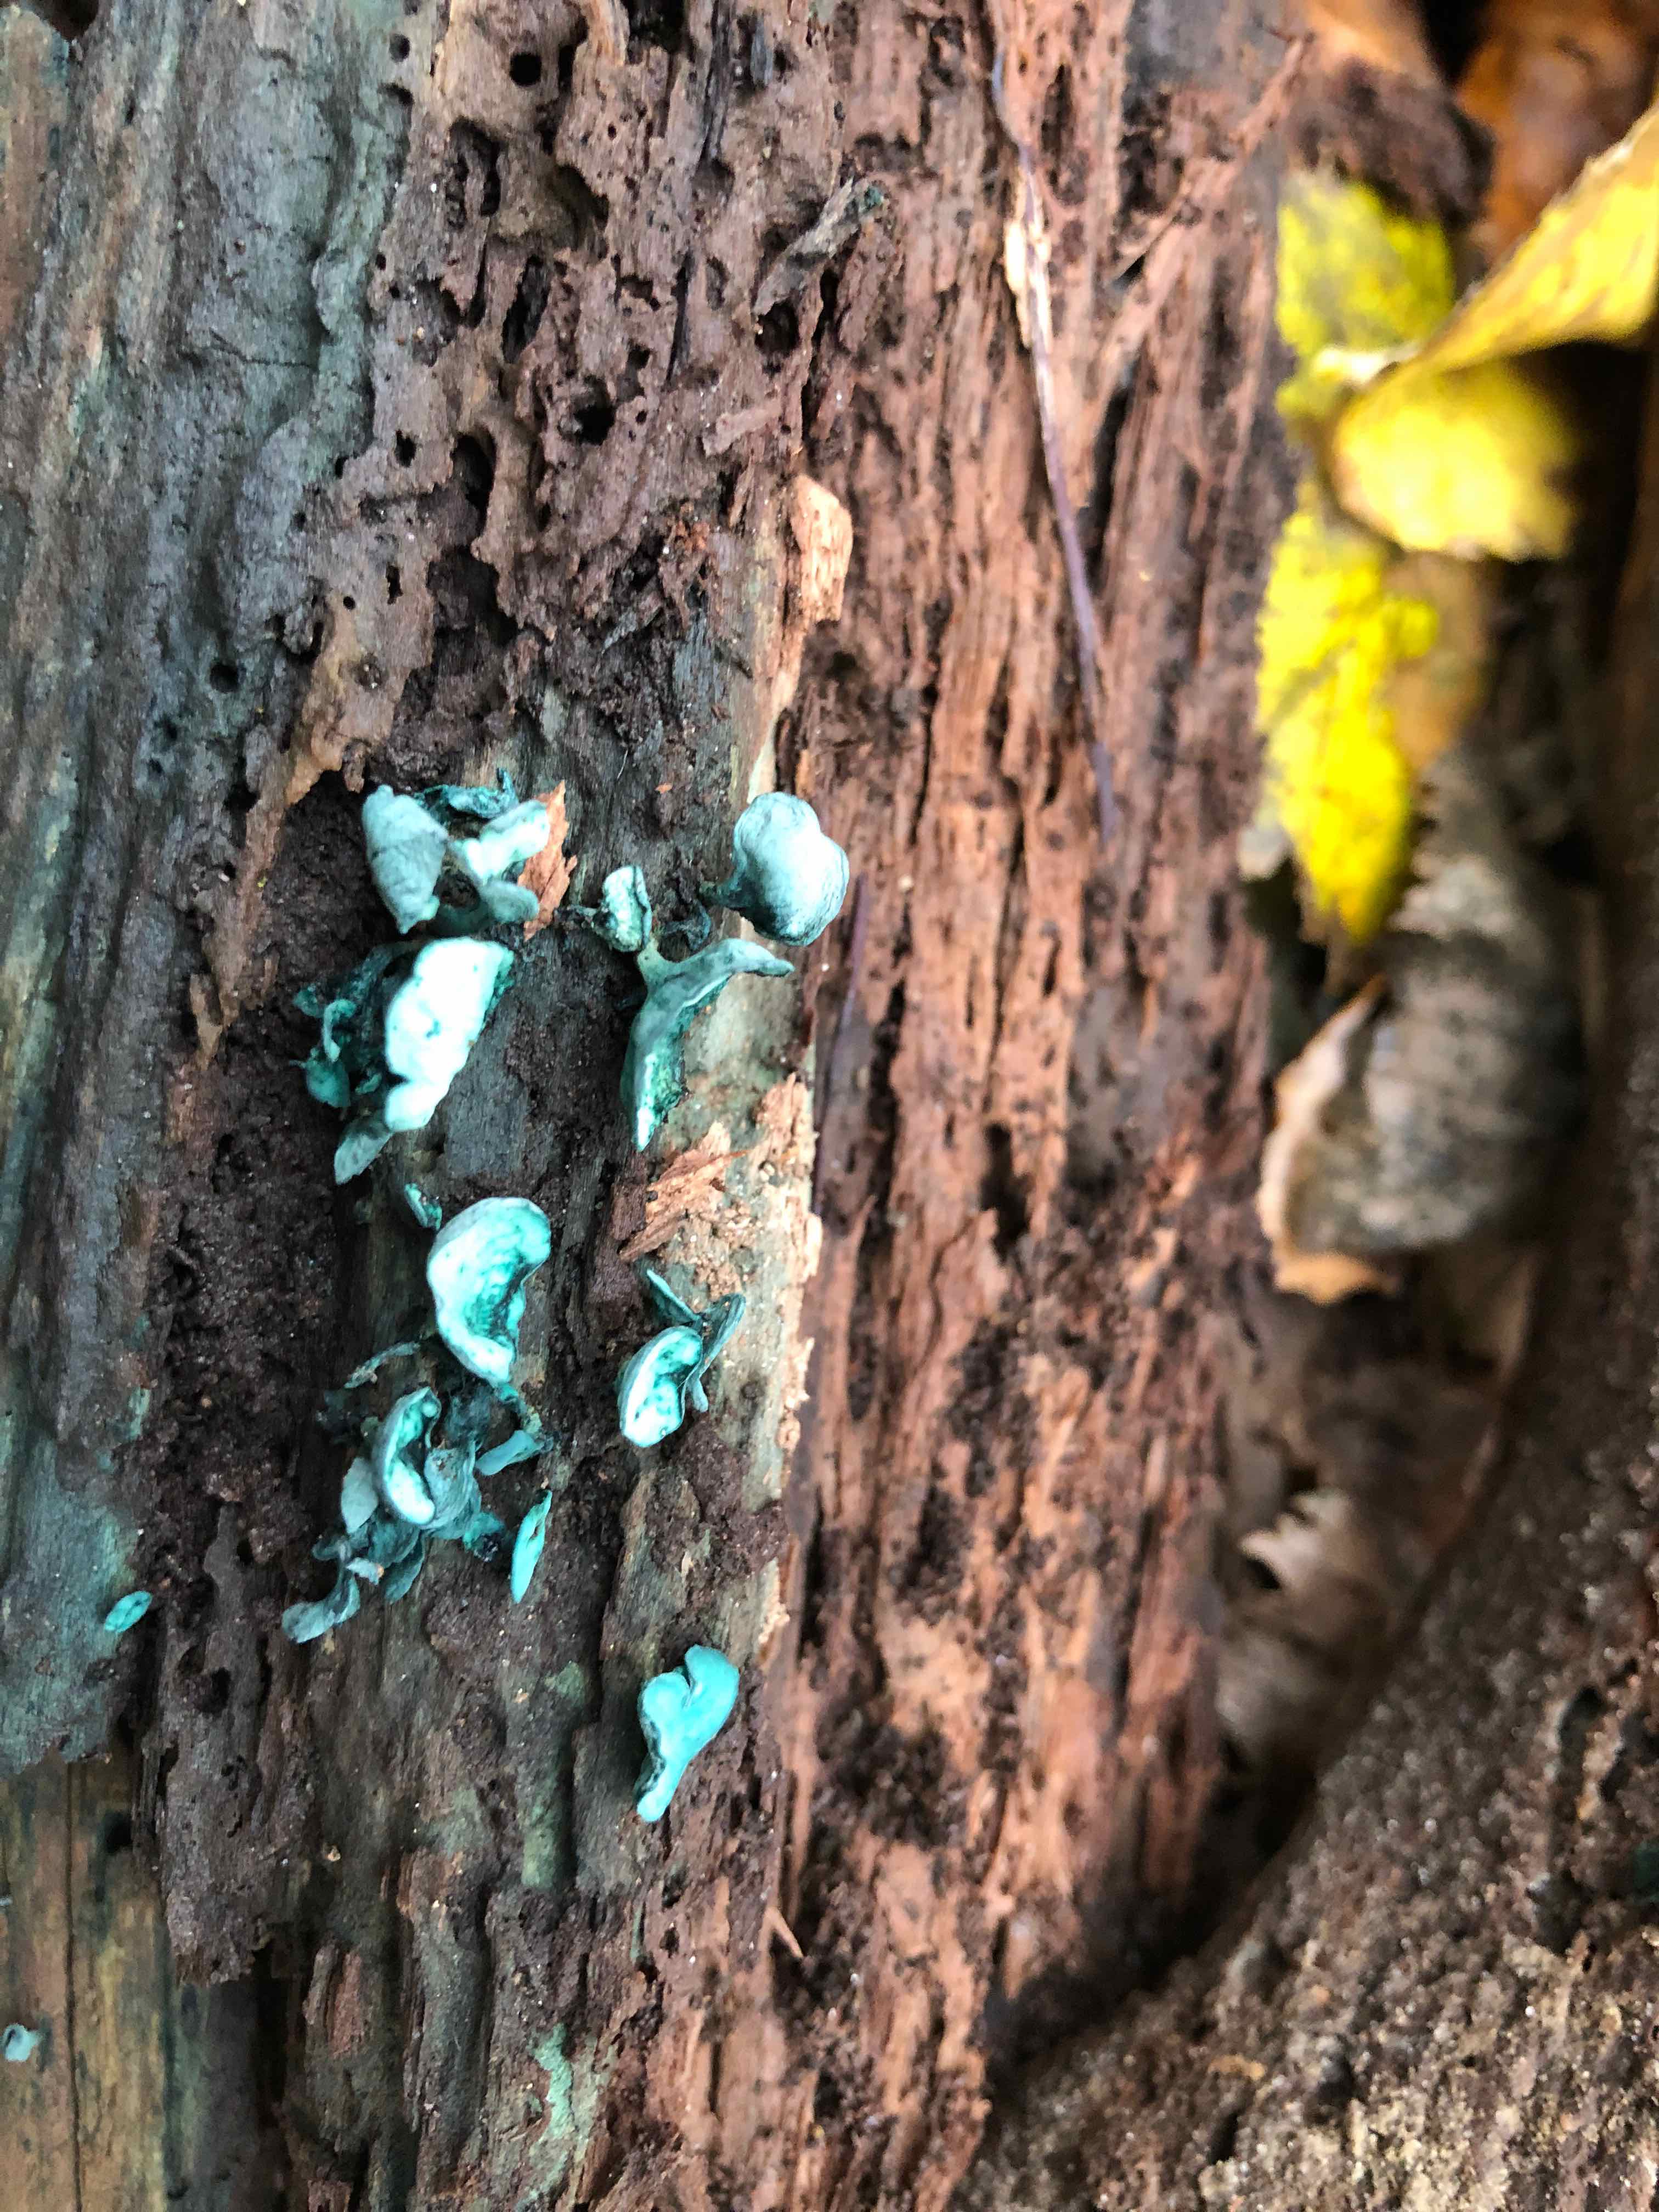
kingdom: Fungi
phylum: Ascomycota
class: Leotiomycetes
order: Helotiales
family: Chlorociboriaceae
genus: Chlorociboria
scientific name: Chlorociboria aeruginascens
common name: almindelig grønskive
